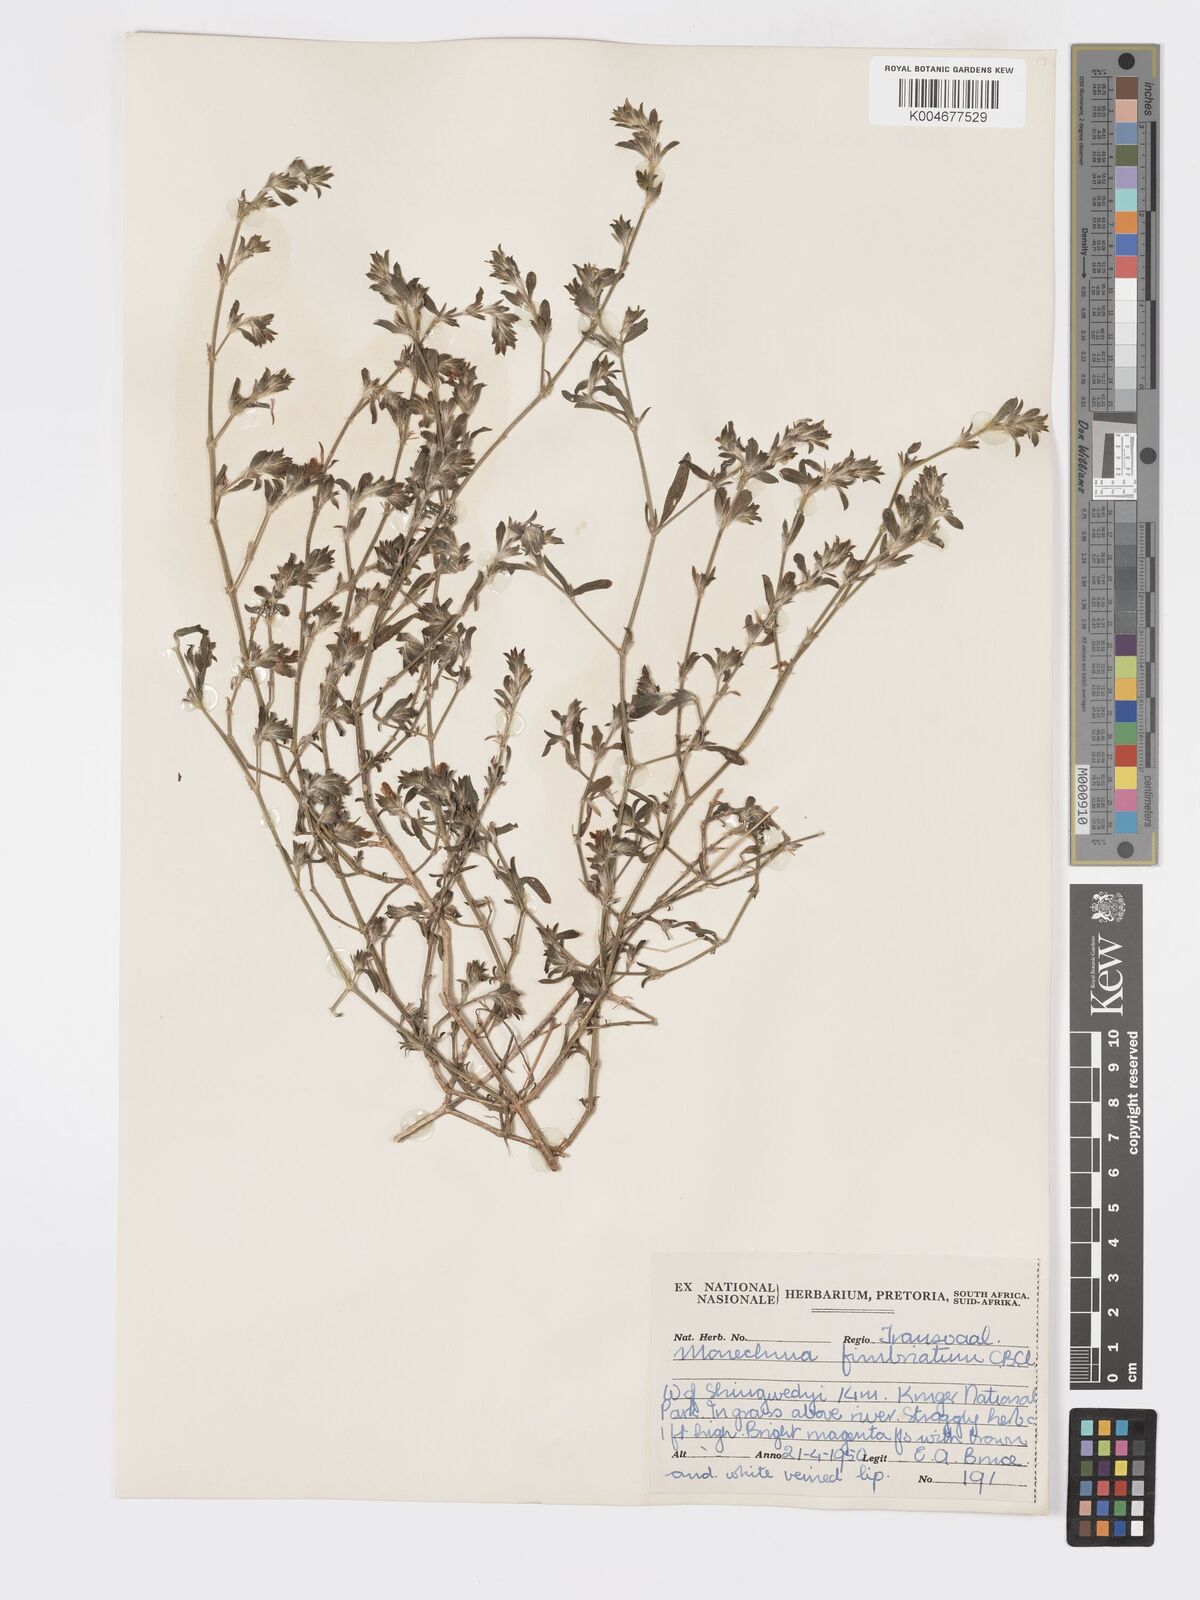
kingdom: Plantae
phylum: Tracheophyta
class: Magnoliopsida
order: Lamiales
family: Acanthaceae
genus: Pogonospermum
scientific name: Pogonospermum
